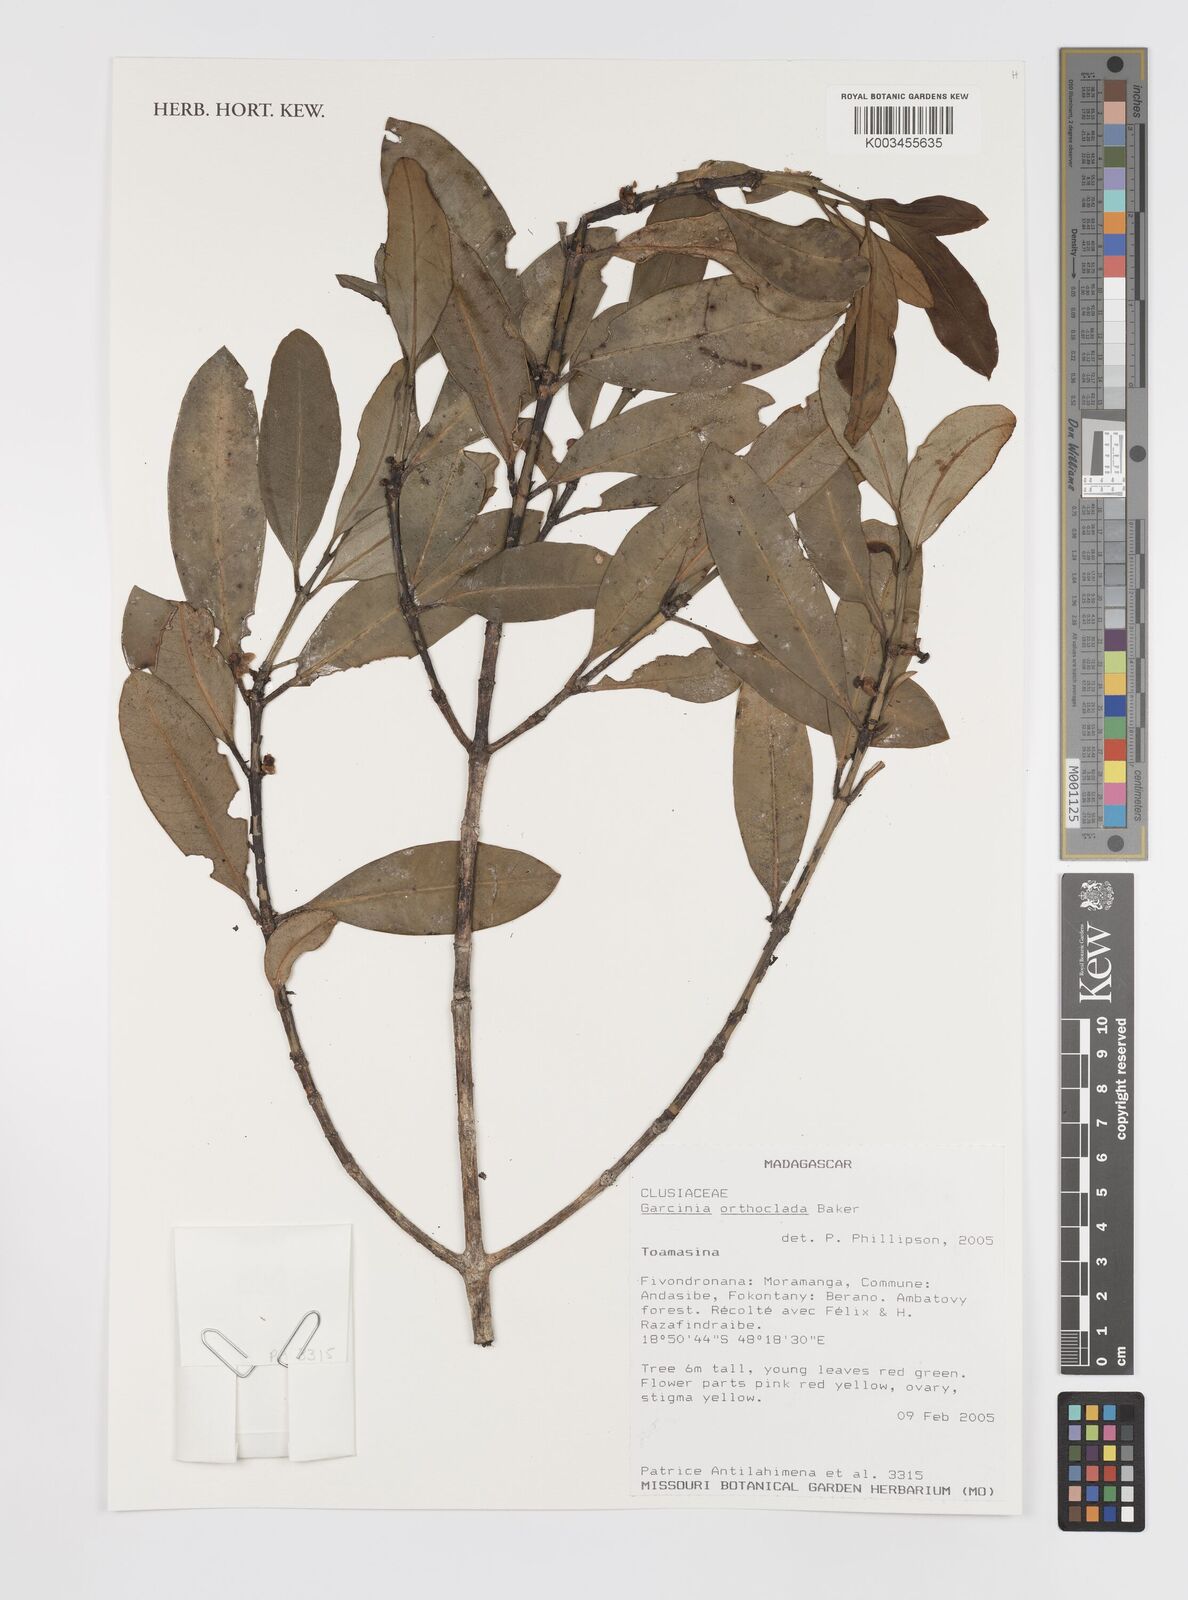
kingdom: Plantae
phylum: Tracheophyta
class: Magnoliopsida
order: Malpighiales
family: Clusiaceae
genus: Garcinia
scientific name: Garcinia orthoclada
